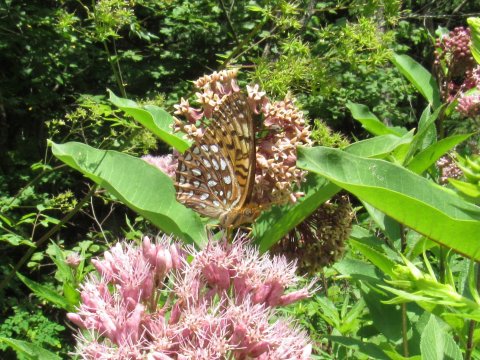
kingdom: Animalia
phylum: Arthropoda
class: Insecta
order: Lepidoptera
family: Nymphalidae
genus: Speyeria
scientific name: Speyeria atlantis
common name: Atlantis Fritillary
